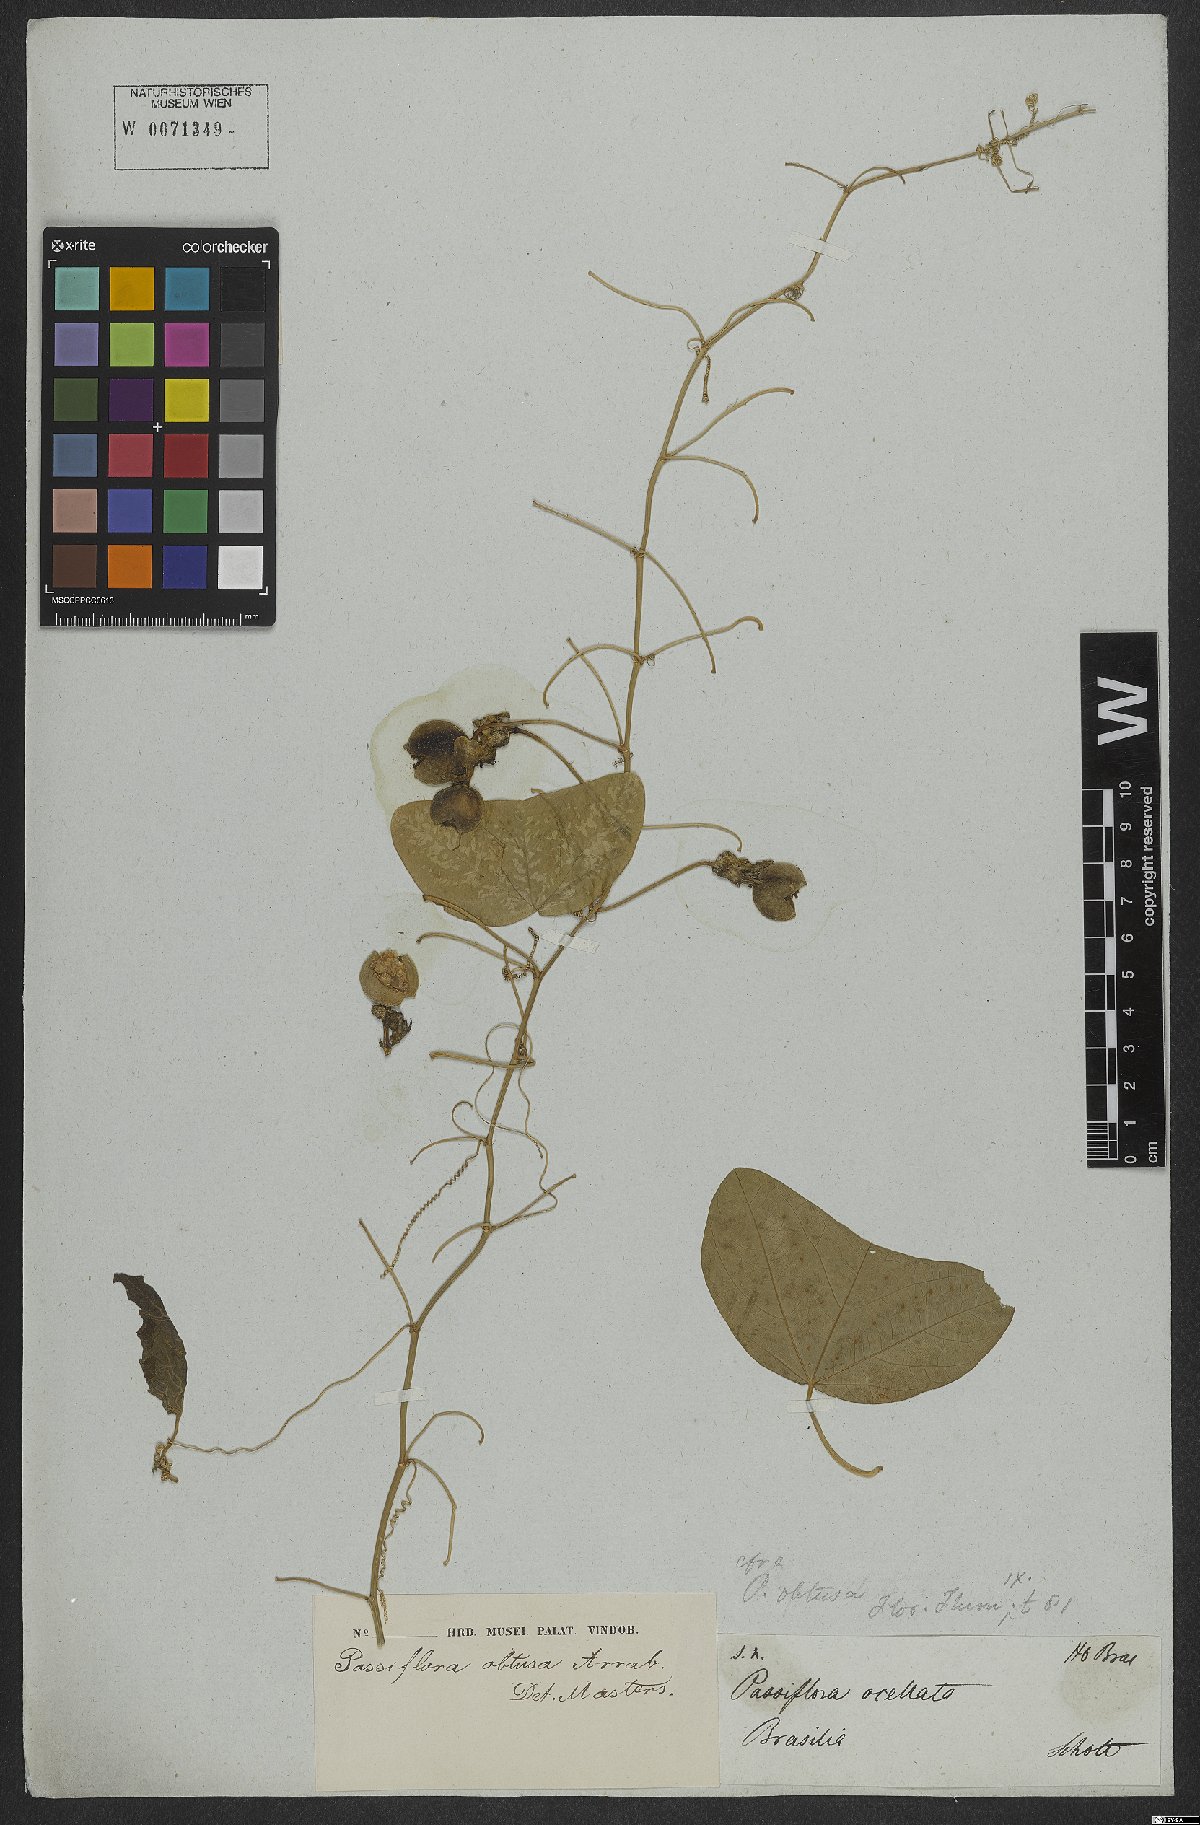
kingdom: Plantae
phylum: Tracheophyta
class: Magnoliopsida
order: Malpighiales
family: Passifloraceae
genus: Passiflora
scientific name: Passiflora porophylla
